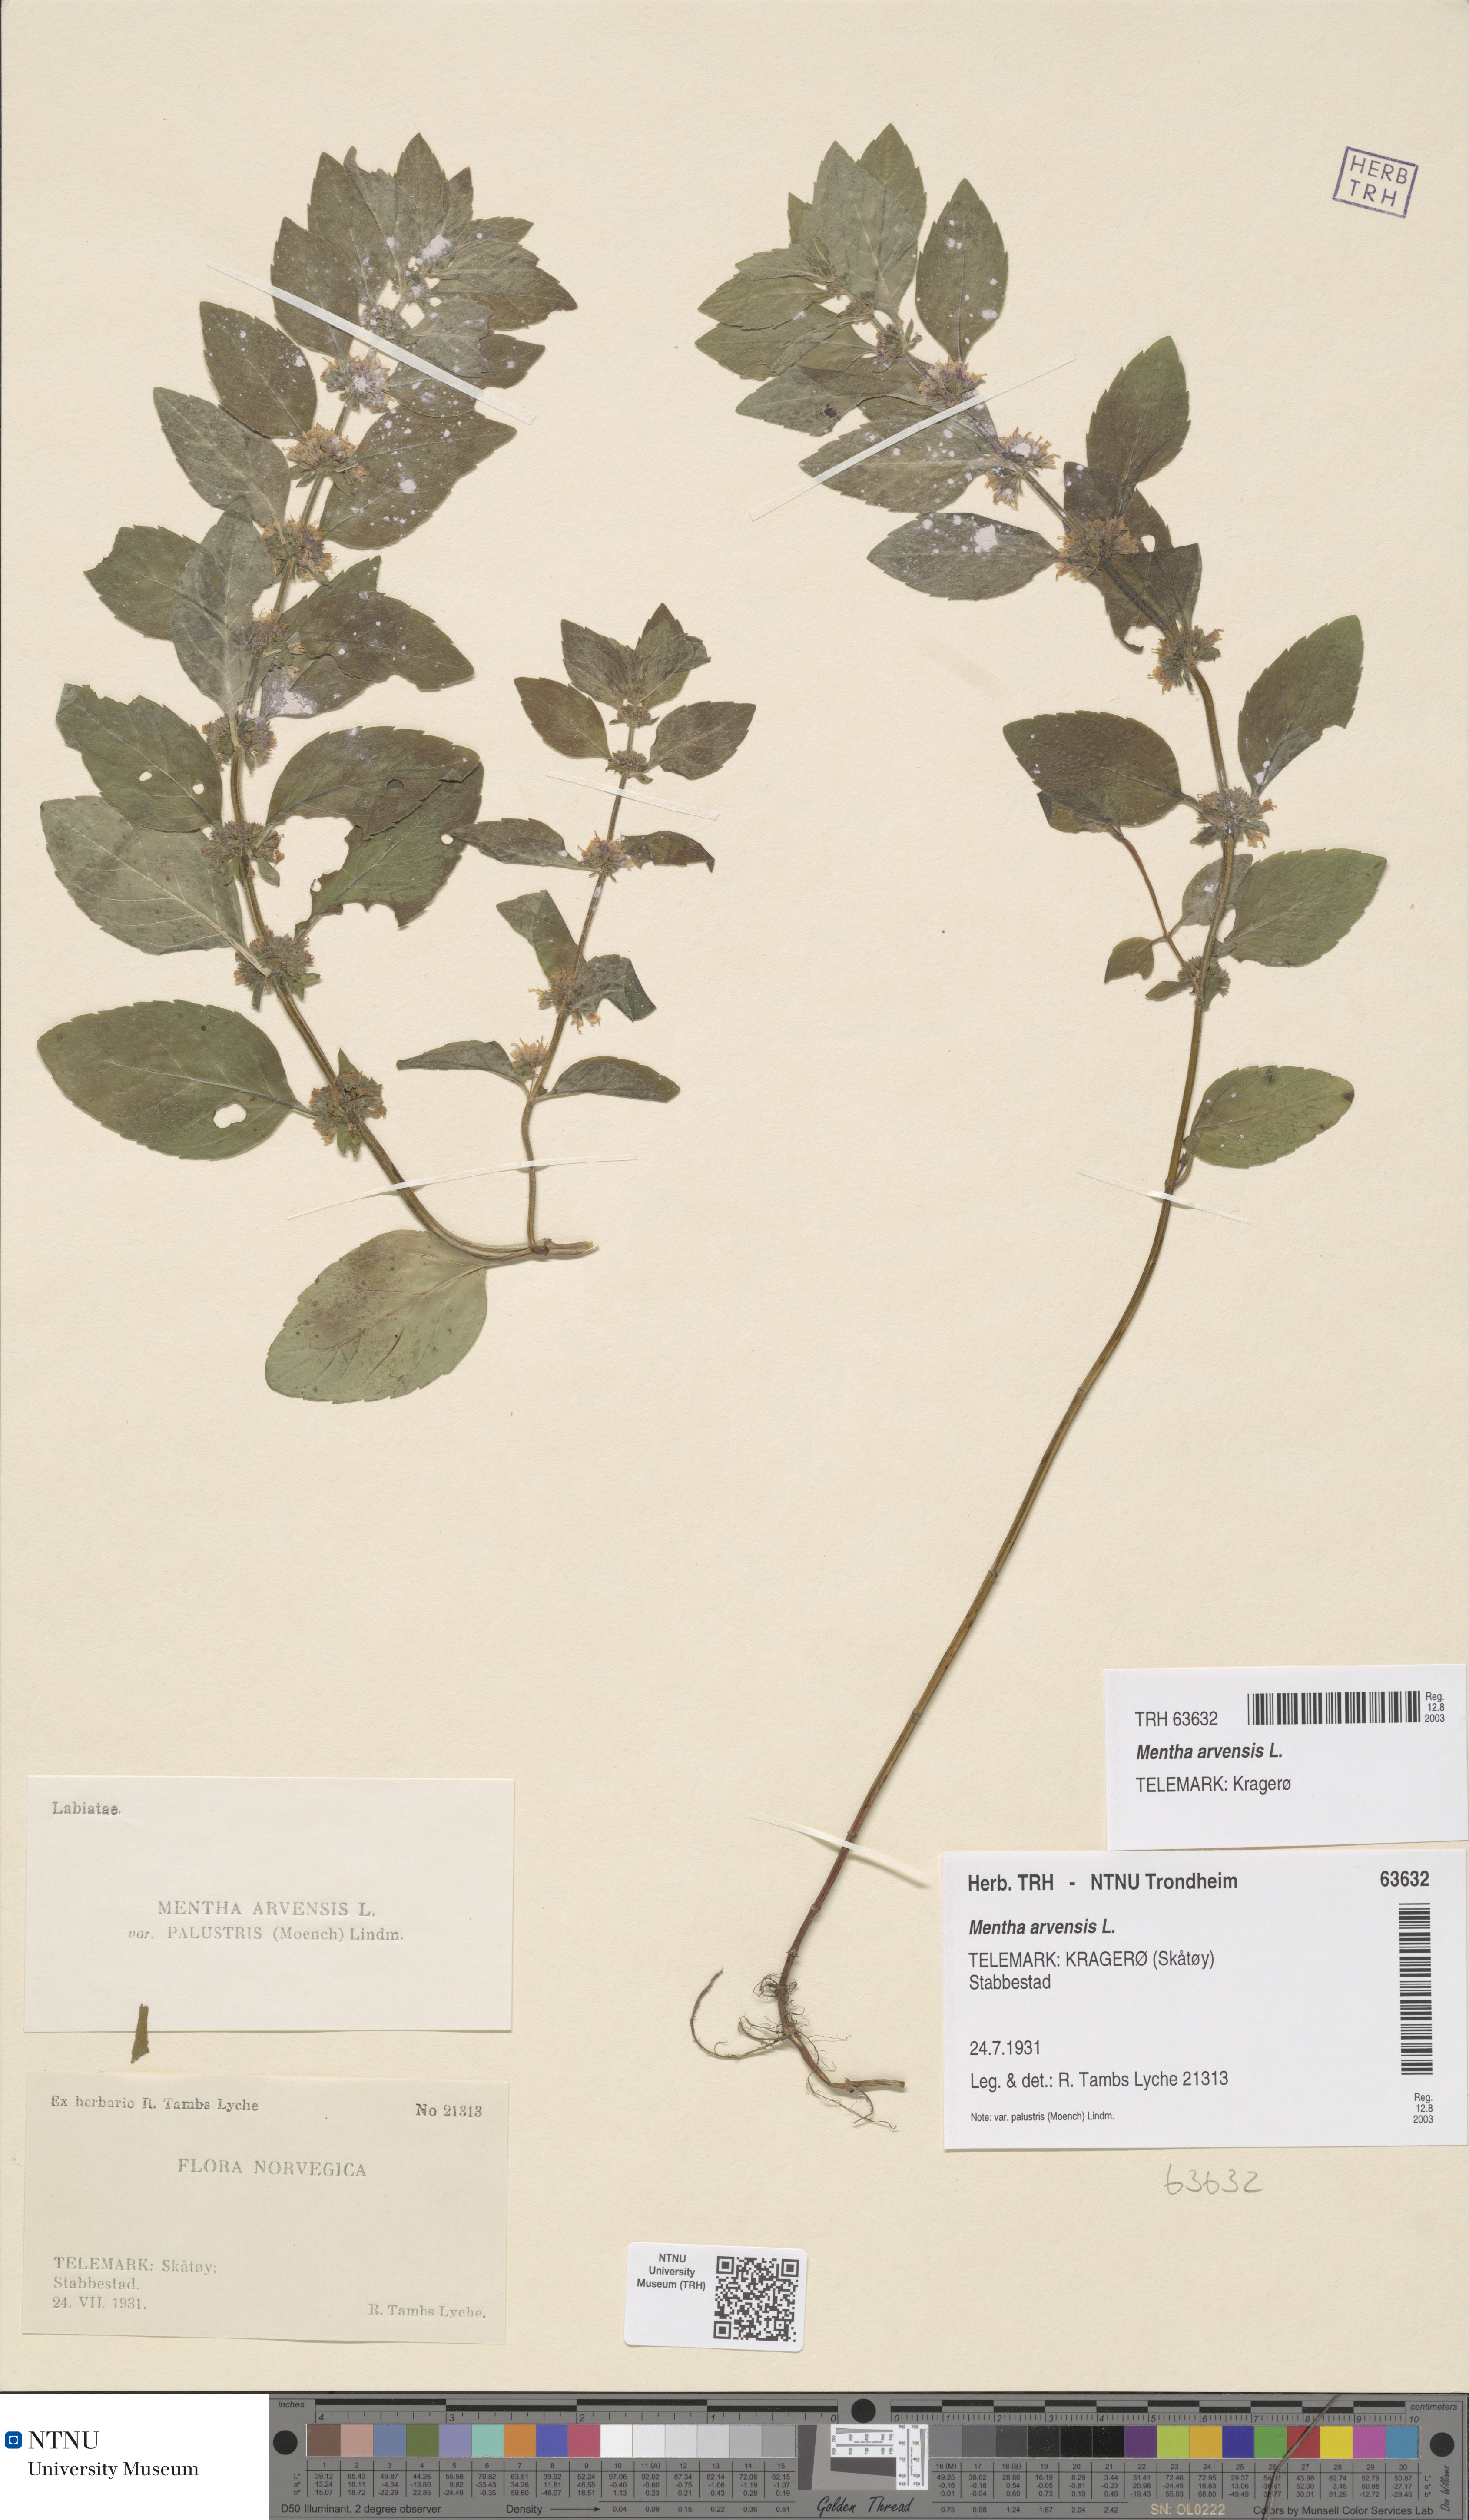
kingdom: Plantae
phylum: Tracheophyta
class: Magnoliopsida
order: Lamiales
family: Lamiaceae
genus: Mentha
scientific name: Mentha arvensis
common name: Corn mint
